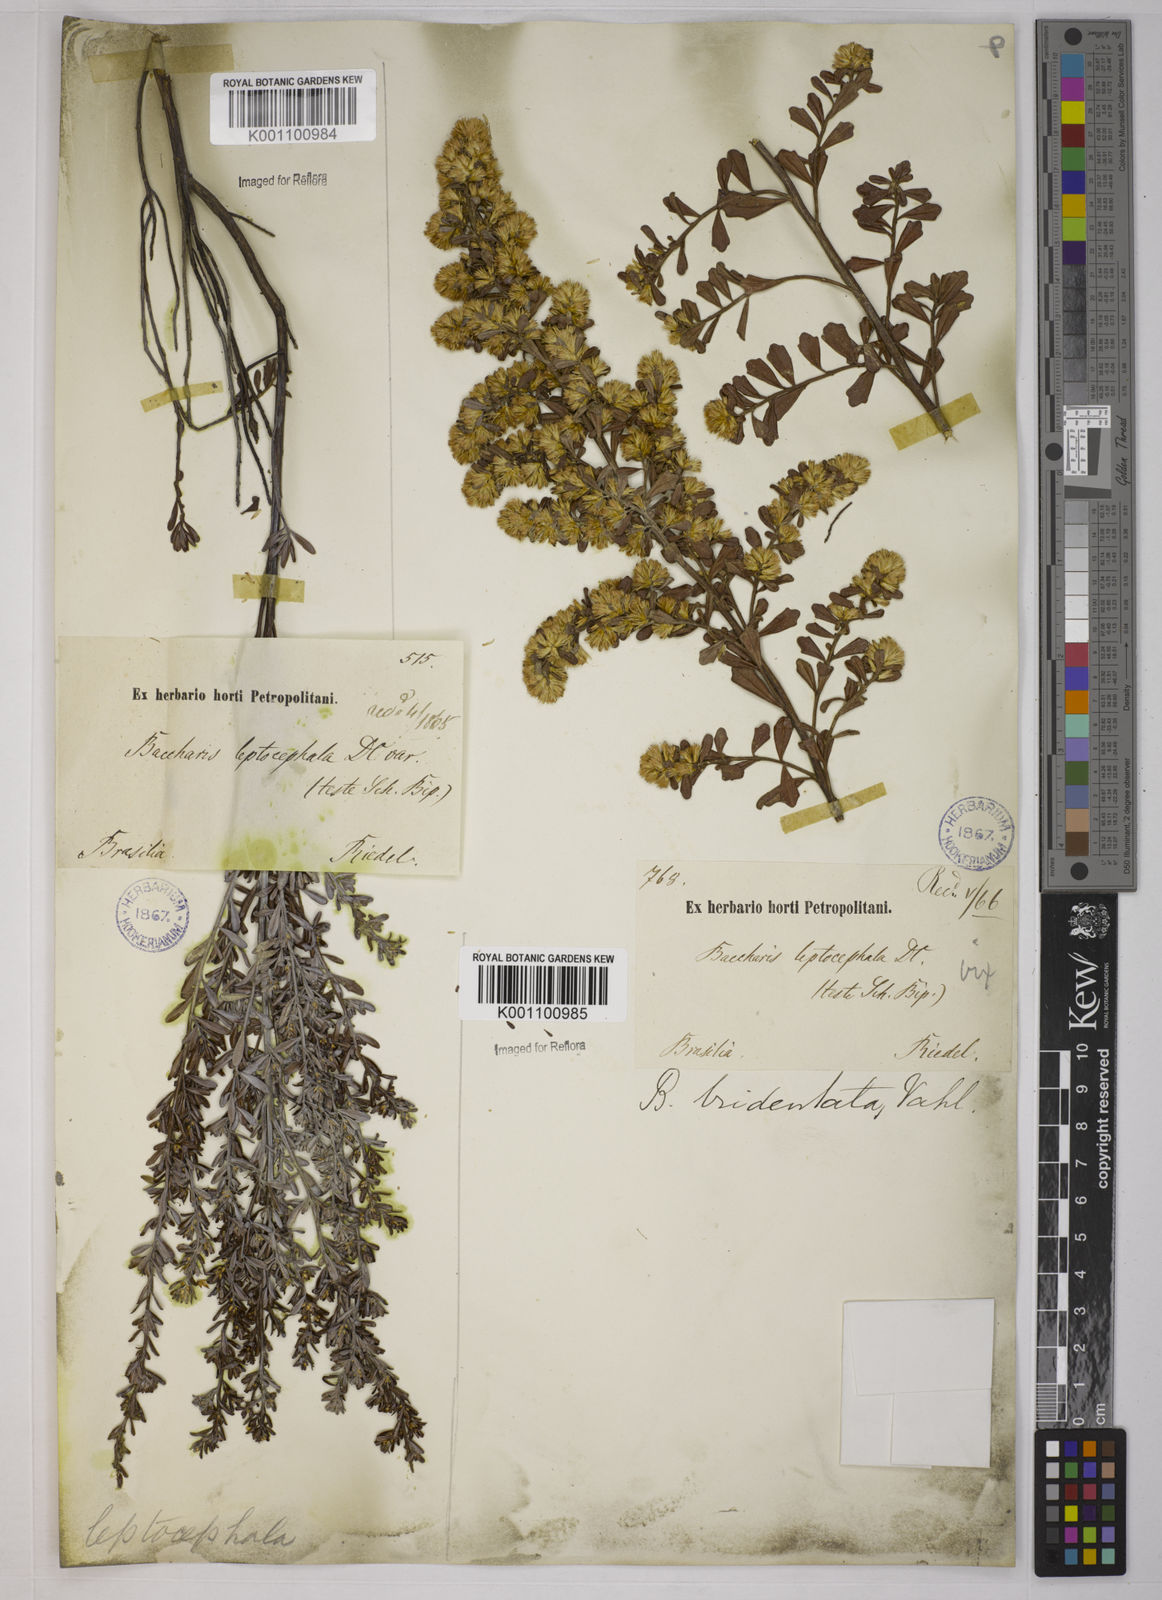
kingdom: Plantae
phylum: Tracheophyta
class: Magnoliopsida
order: Asterales
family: Asteraceae
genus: Baccharis
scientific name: Baccharis tridentata
